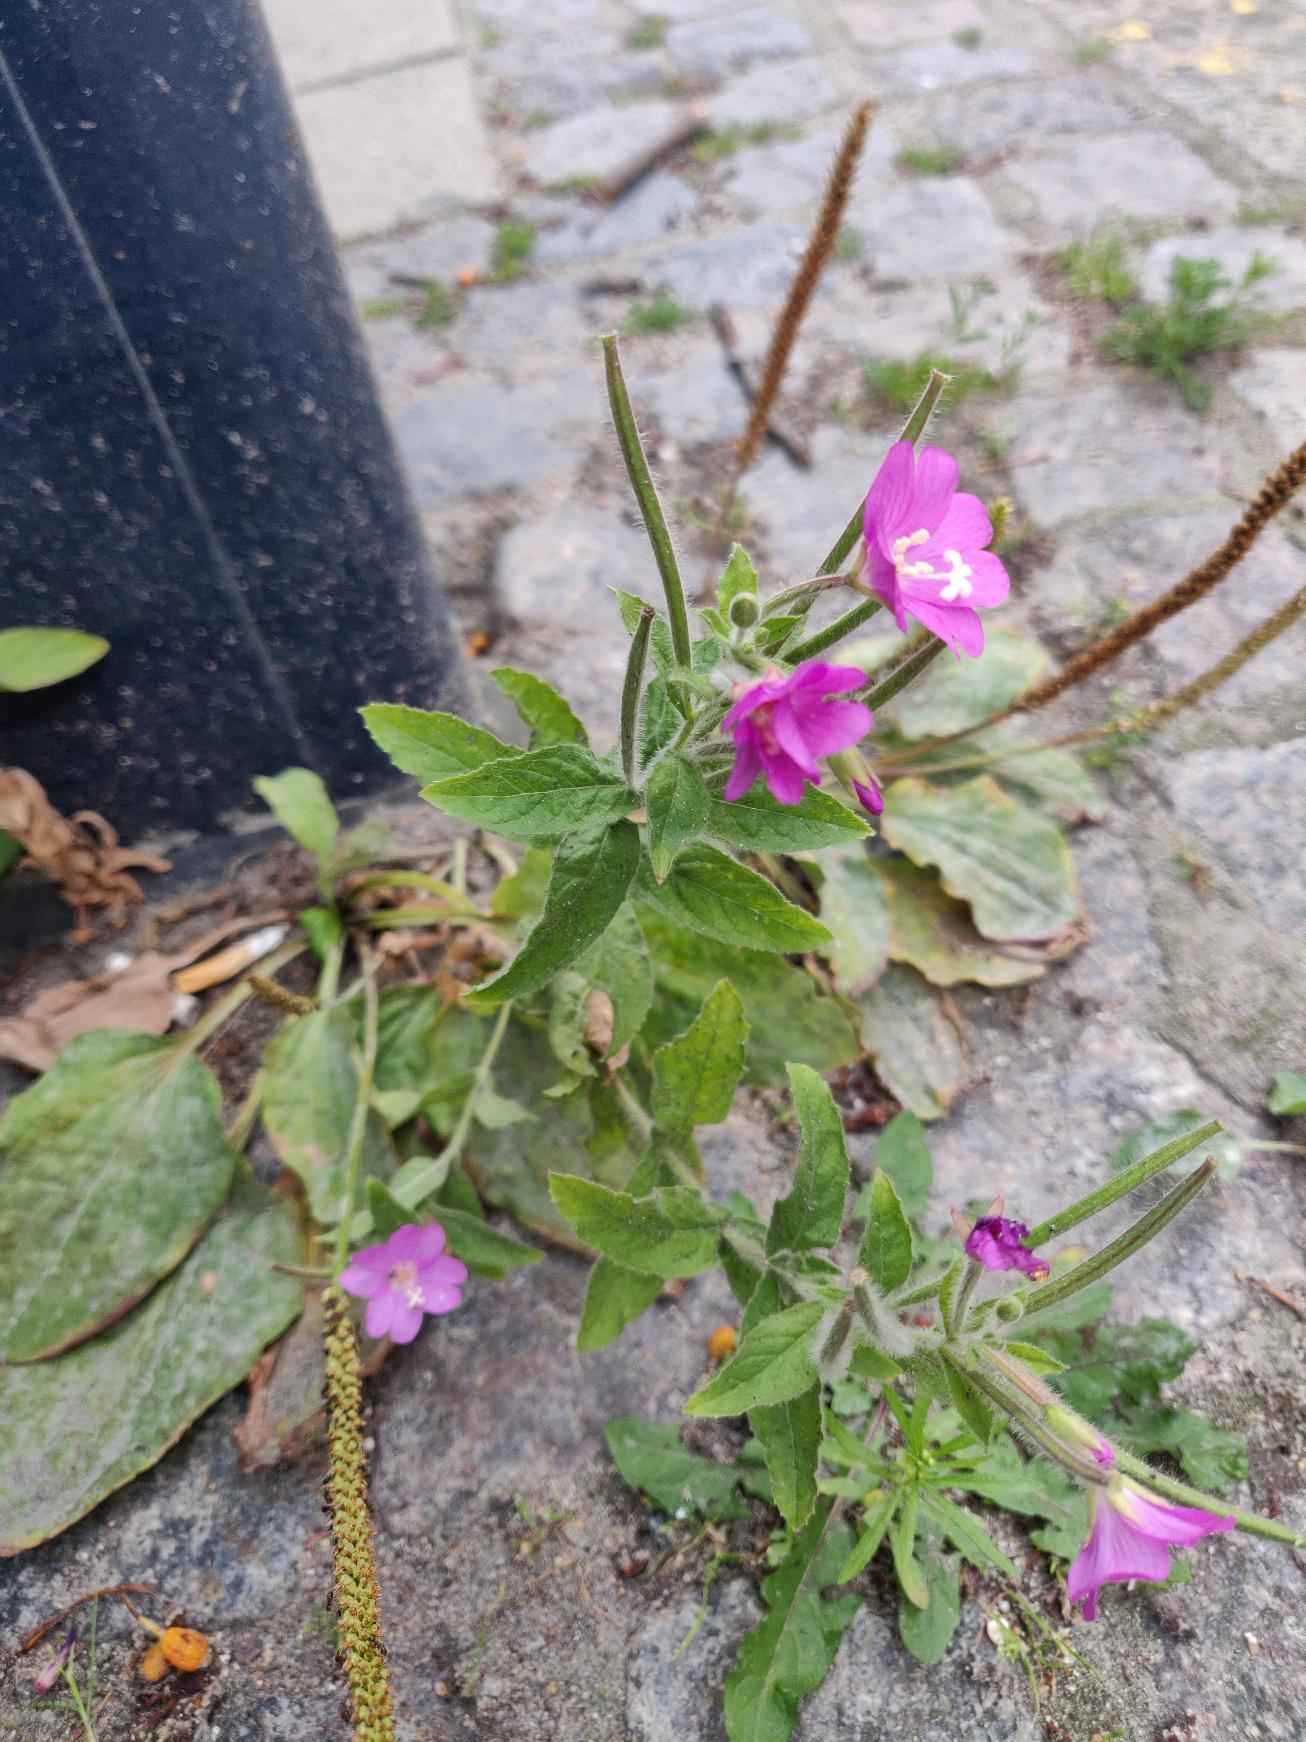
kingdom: Plantae
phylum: Tracheophyta
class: Magnoliopsida
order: Myrtales
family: Onagraceae
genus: Epilobium
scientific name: Epilobium hirsutum
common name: Lådden dueurt
